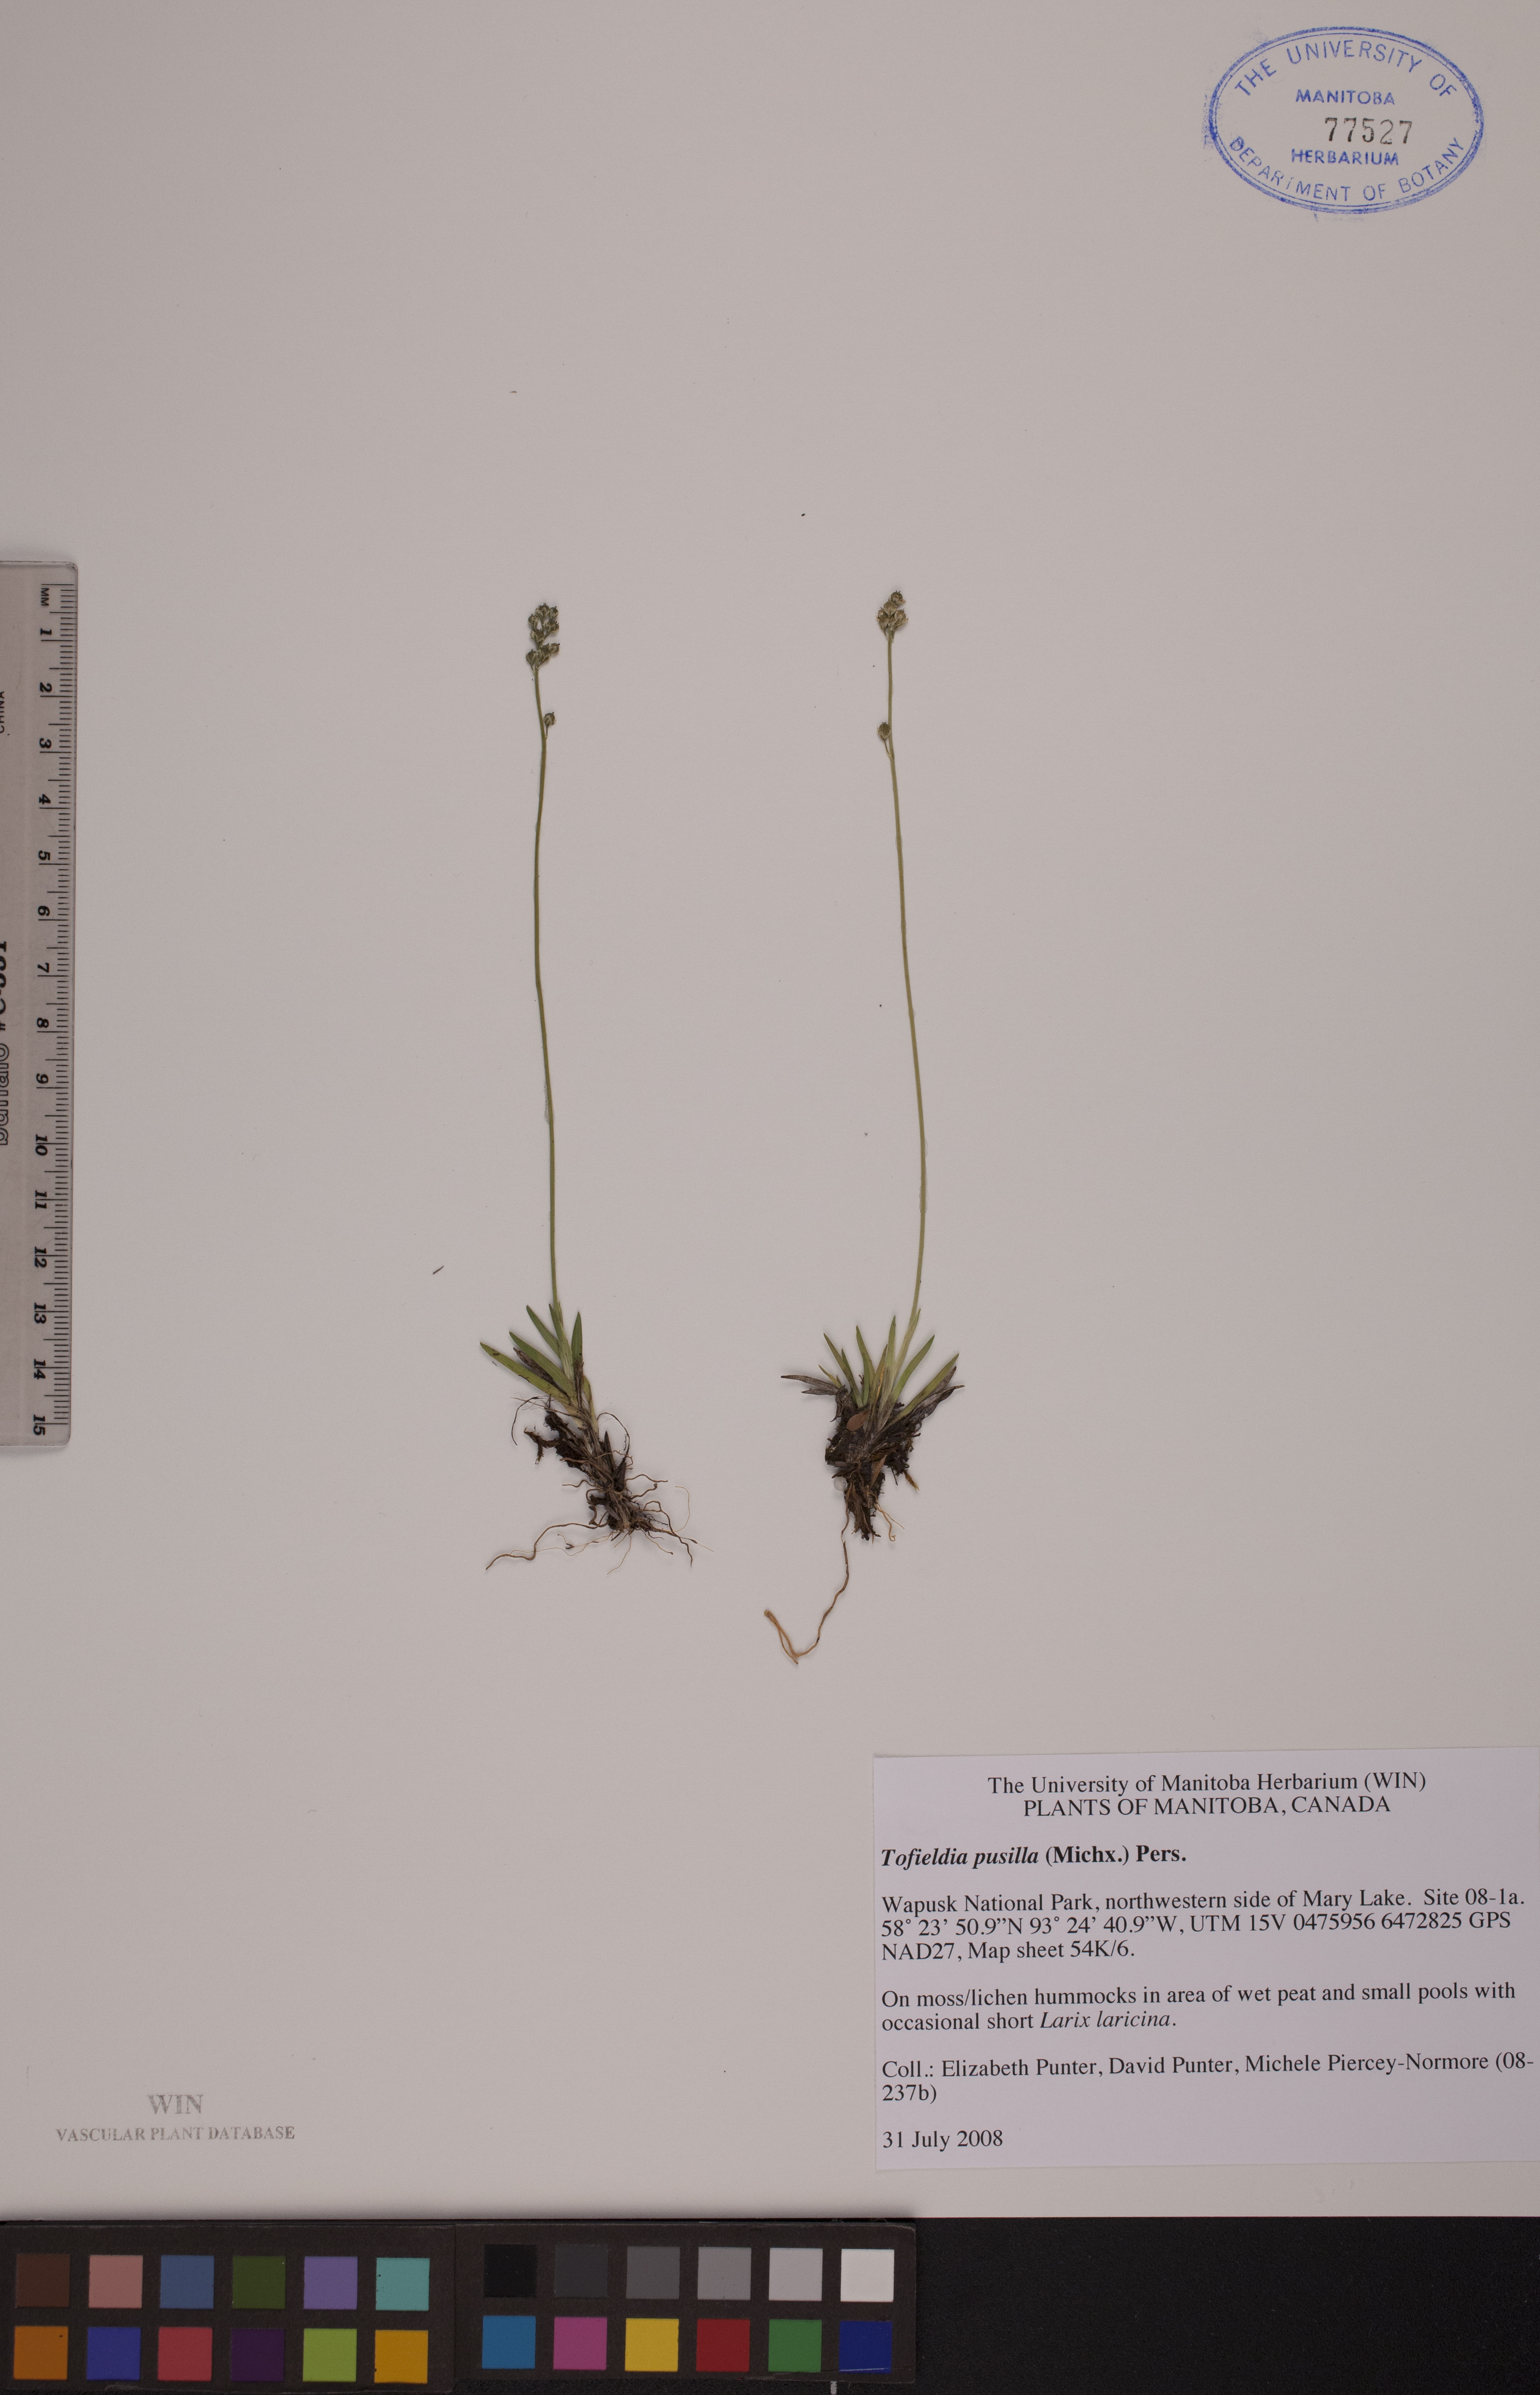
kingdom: Plantae
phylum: Tracheophyta
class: Liliopsida
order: Alismatales
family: Tofieldiaceae
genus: Tofieldia
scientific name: Tofieldia pusilla
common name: Scottish false asphodel
